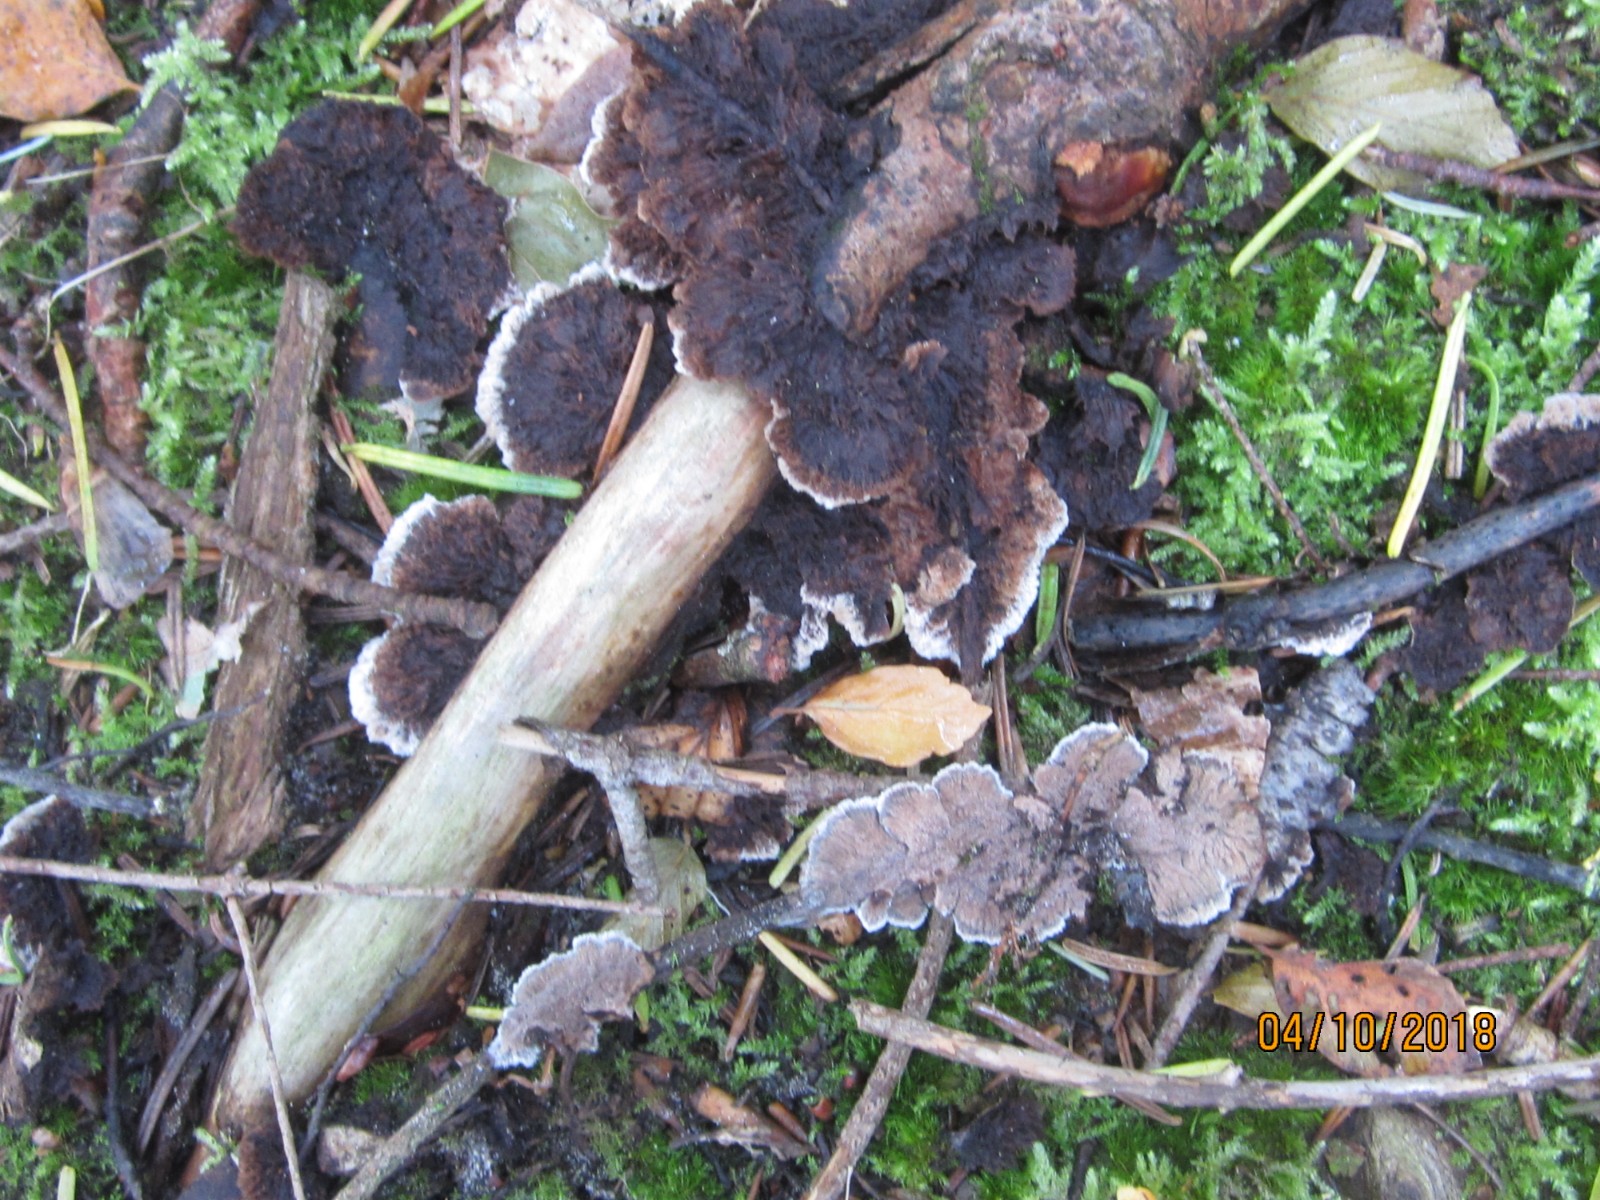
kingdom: Fungi
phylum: Basidiomycota
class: Agaricomycetes
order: Thelephorales
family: Thelephoraceae
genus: Thelephora
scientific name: Thelephora terrestris
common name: fliget frynsesvamp
